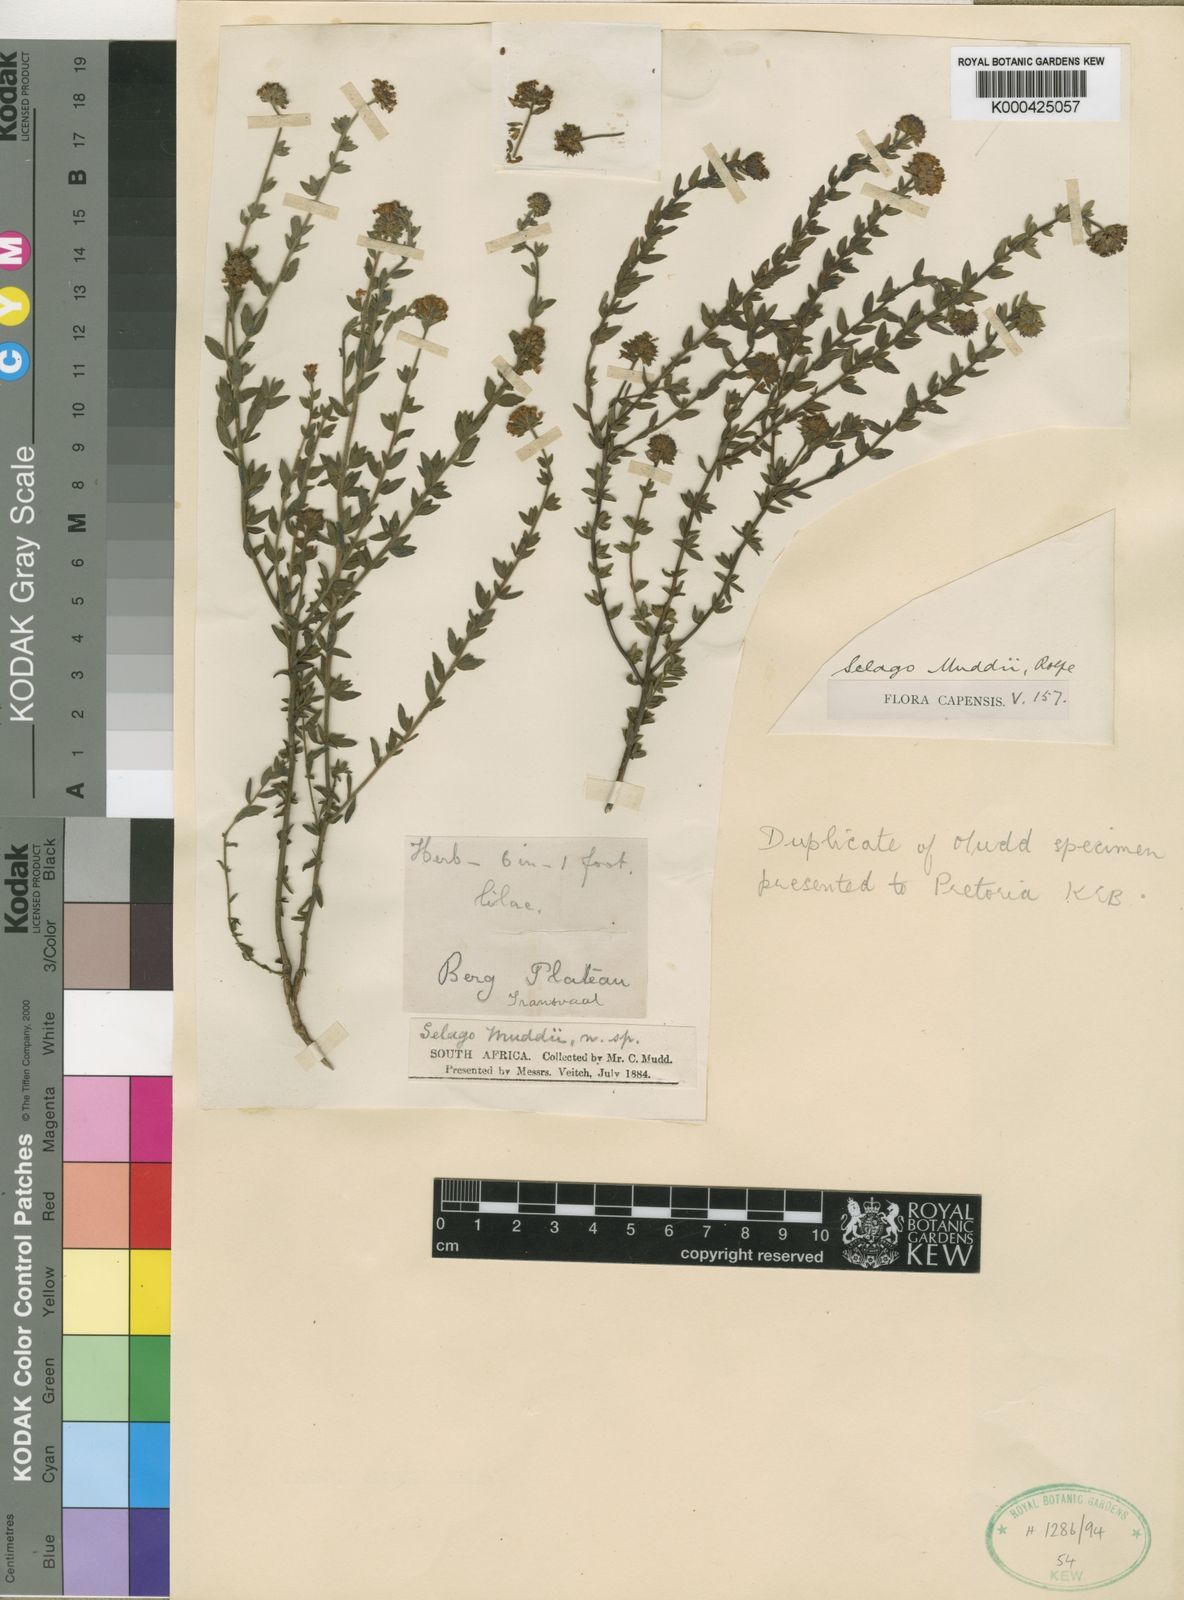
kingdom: Plantae
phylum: Tracheophyta
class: Magnoliopsida
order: Lamiales
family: Scrophulariaceae
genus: Selago
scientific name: Selago atherstonei
